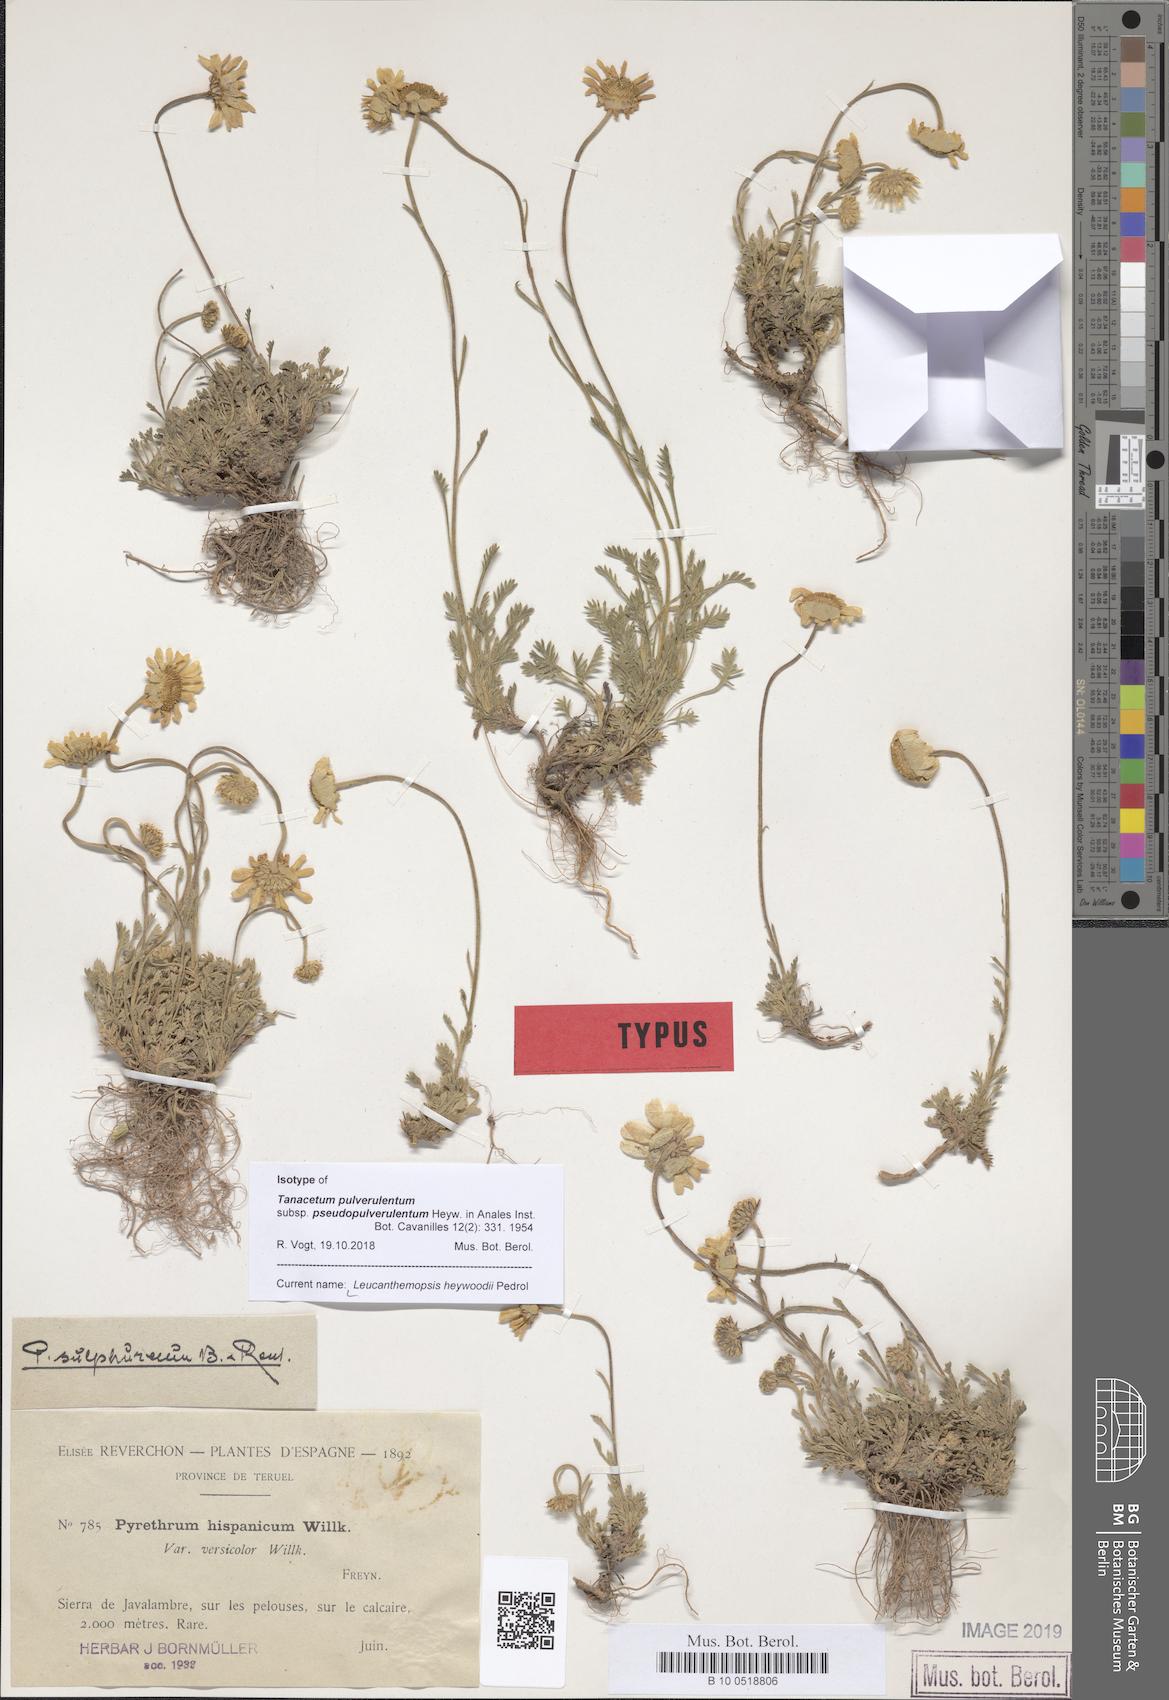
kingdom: Plantae
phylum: Tracheophyta
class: Magnoliopsida
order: Asterales
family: Asteraceae
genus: Leucanthemopsis
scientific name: Leucanthemopsis heywoodii
